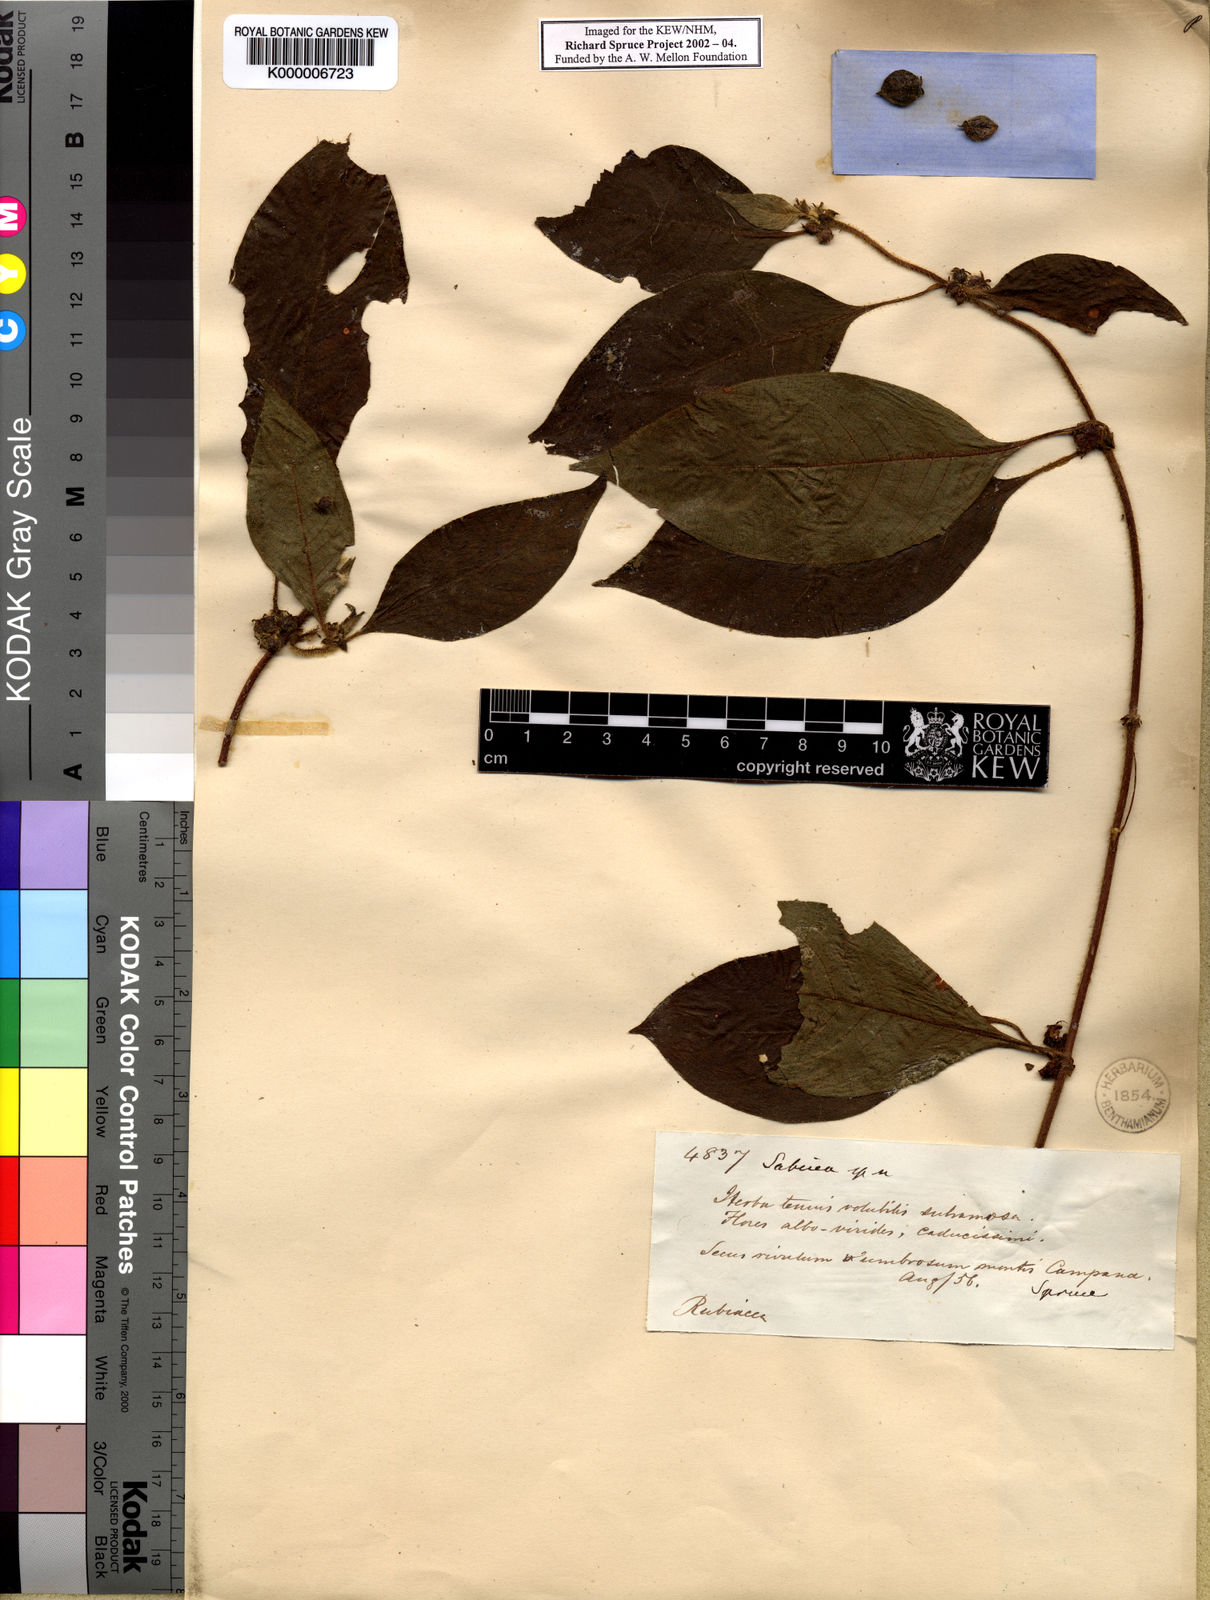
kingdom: Plantae
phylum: Tracheophyta
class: Magnoliopsida
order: Gentianales
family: Rubiaceae
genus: Sabicea
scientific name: Sabicea villosa
